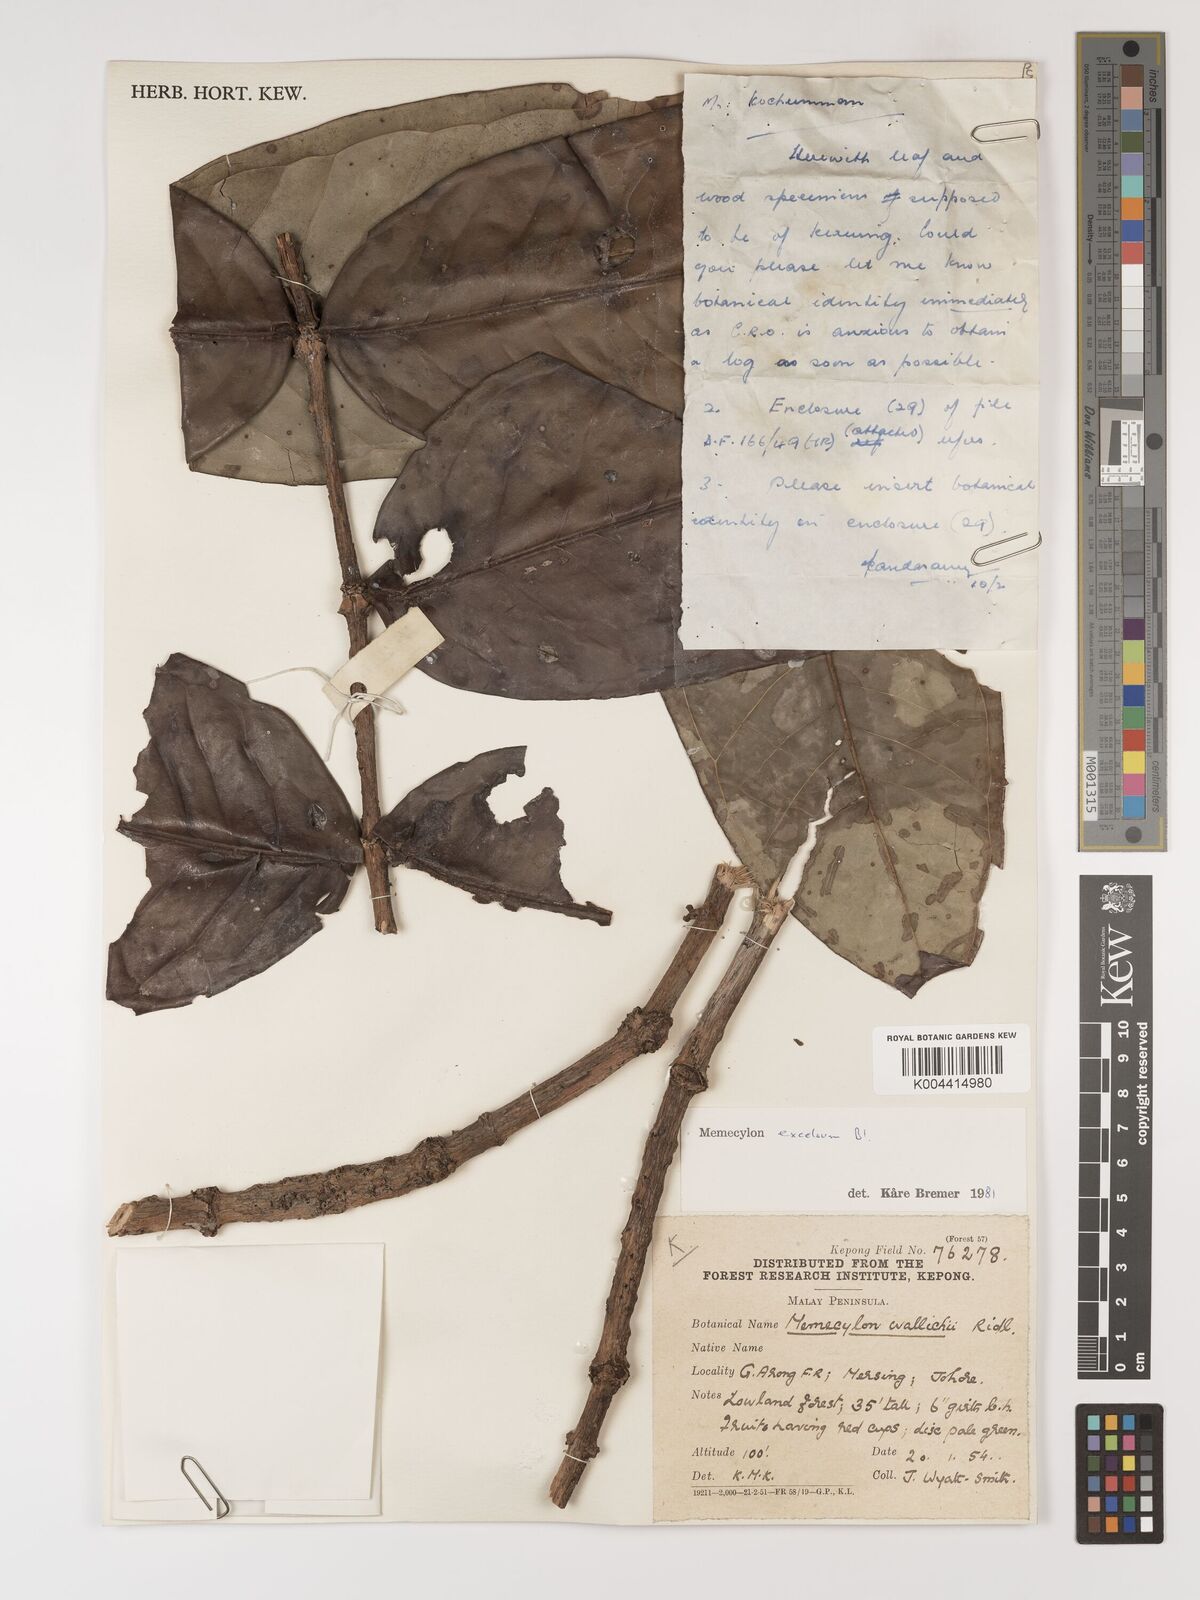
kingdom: Plantae
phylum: Tracheophyta
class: Magnoliopsida
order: Myrtales
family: Melastomataceae
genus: Memecylon
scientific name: Memecylon excelsum
